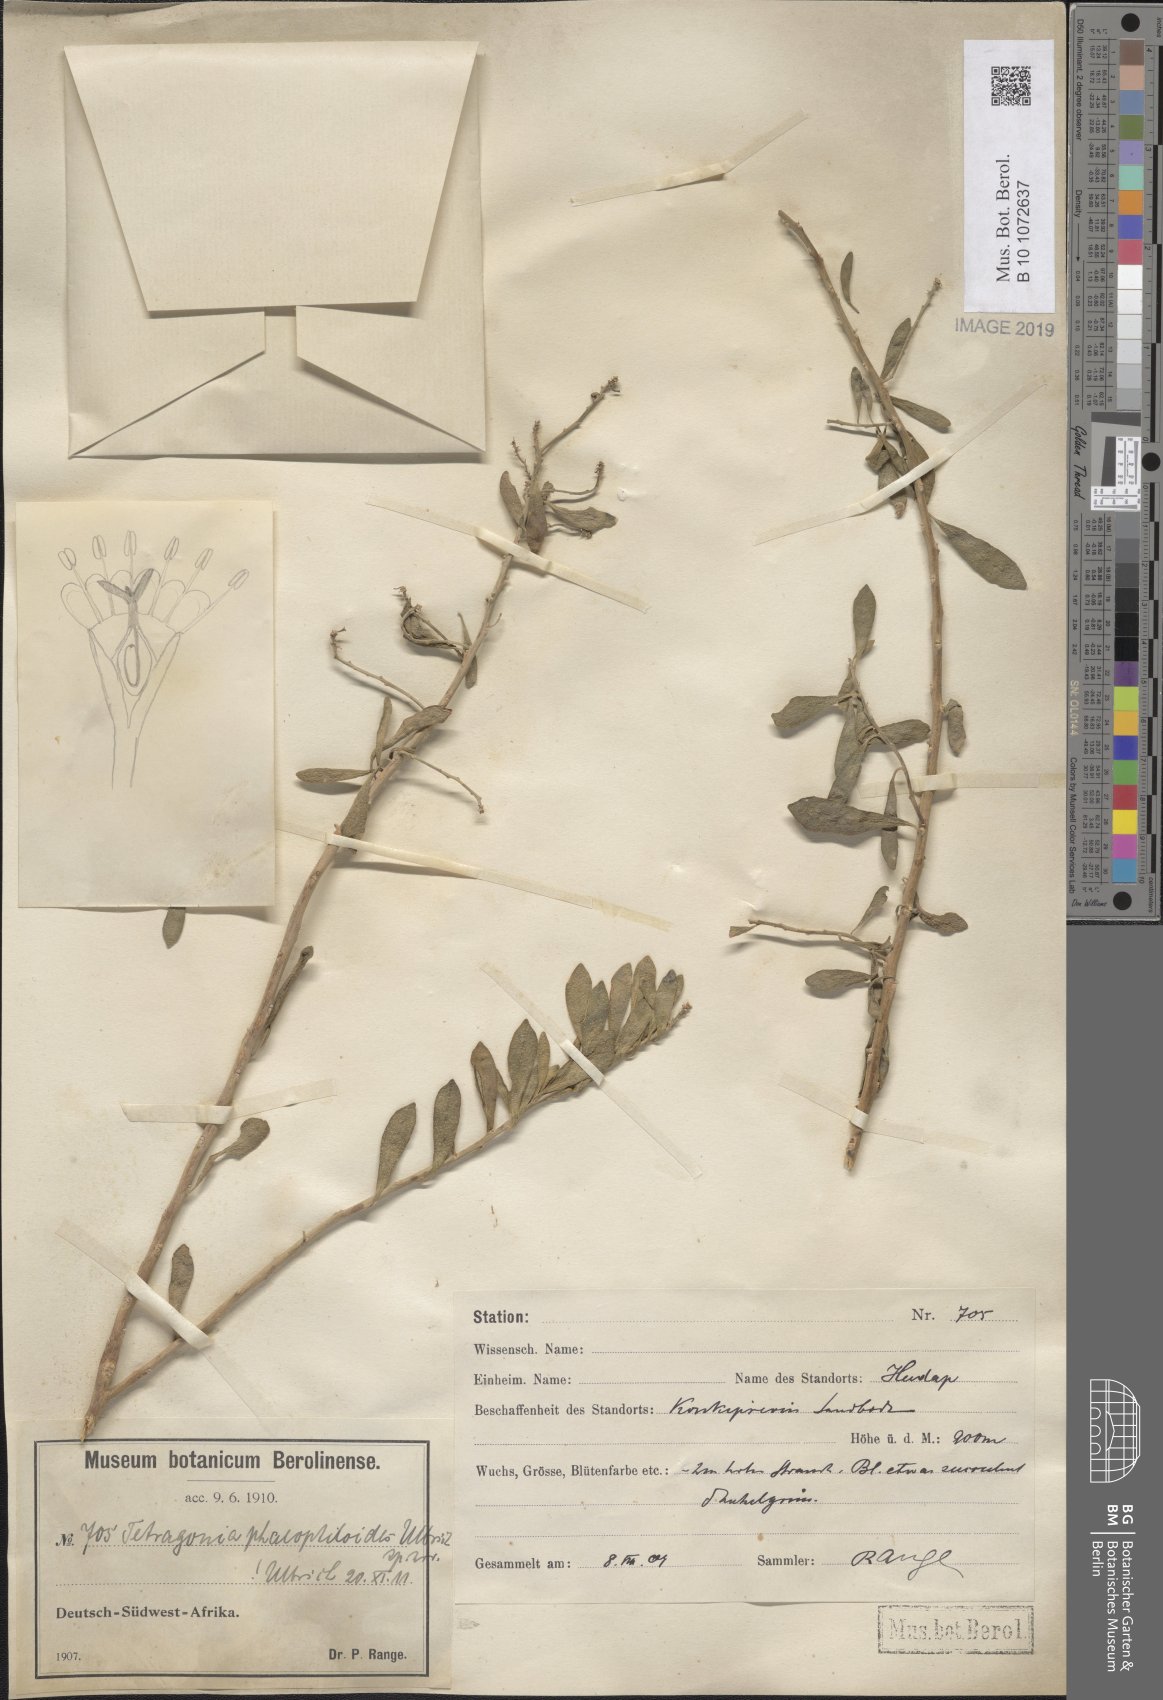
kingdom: Plantae
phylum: Tracheophyta
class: Magnoliopsida
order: Caryophyllales
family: Aizoaceae
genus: Tetragonia
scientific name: Tetragonia
